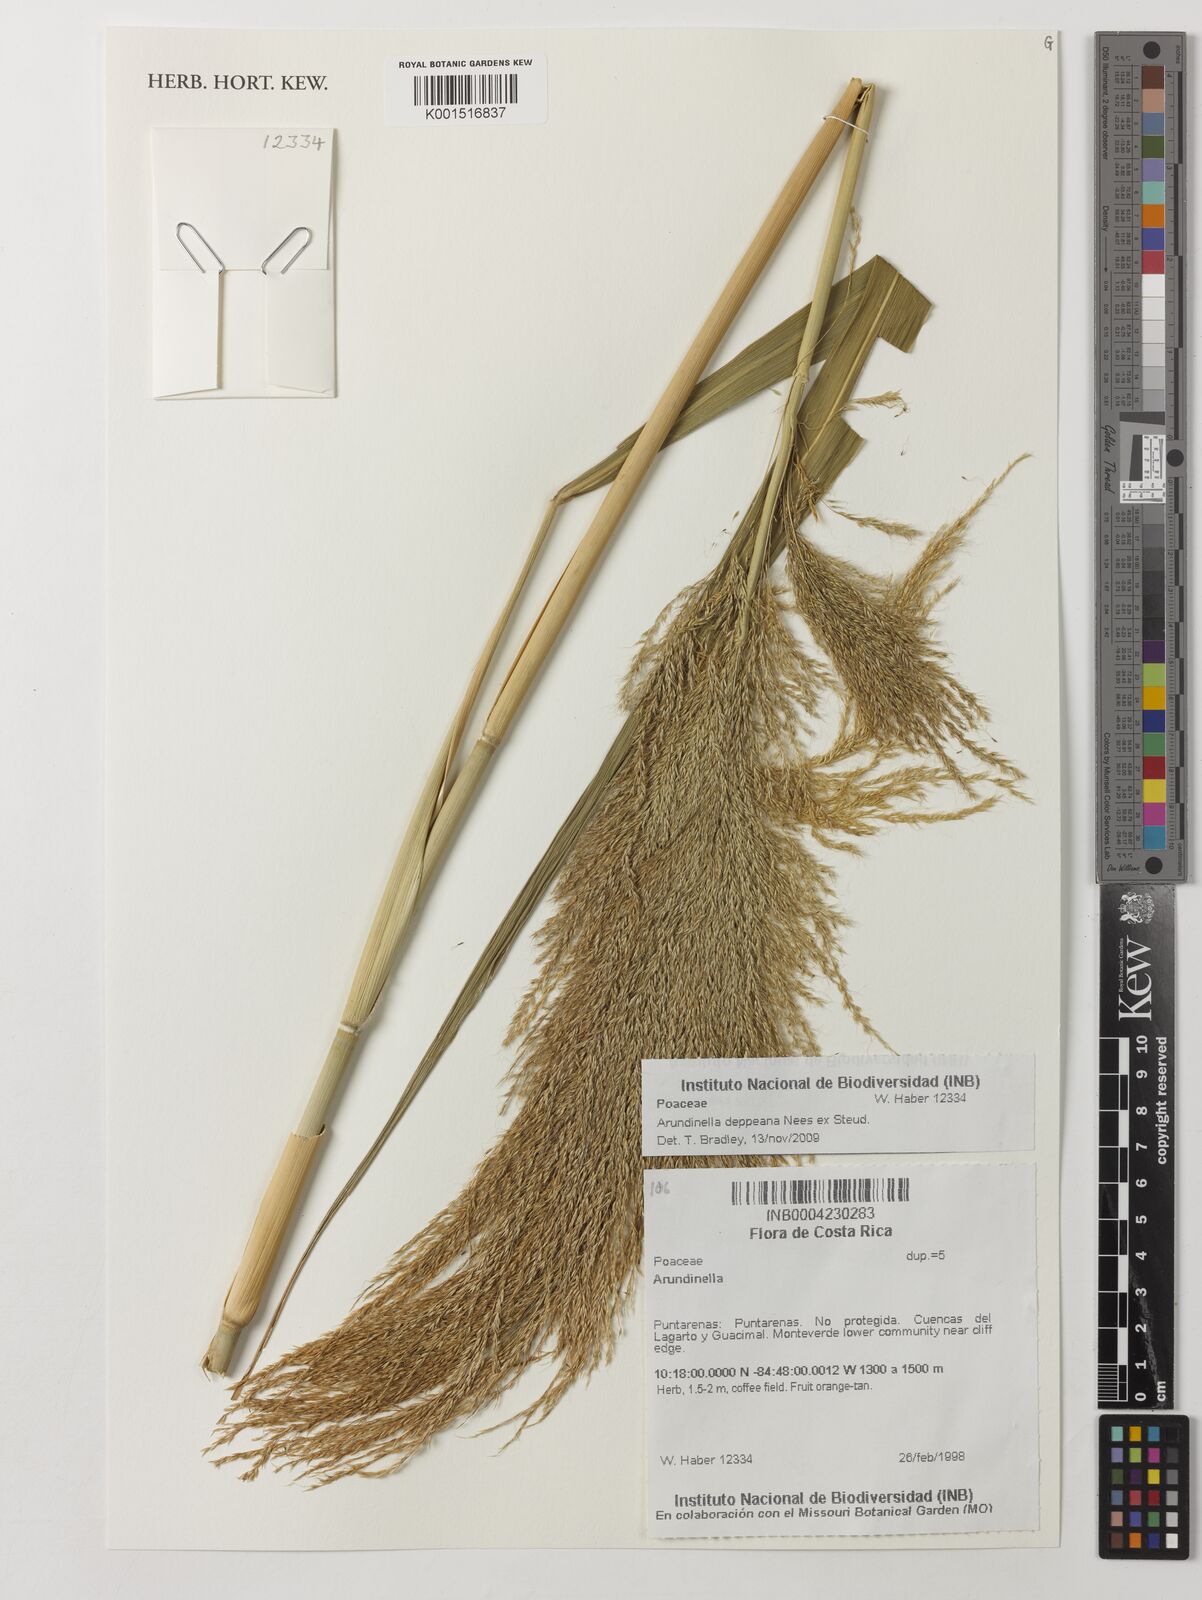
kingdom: Plantae
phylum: Tracheophyta
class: Liliopsida
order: Poales
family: Poaceae
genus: Arundinella
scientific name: Arundinella deppeana
